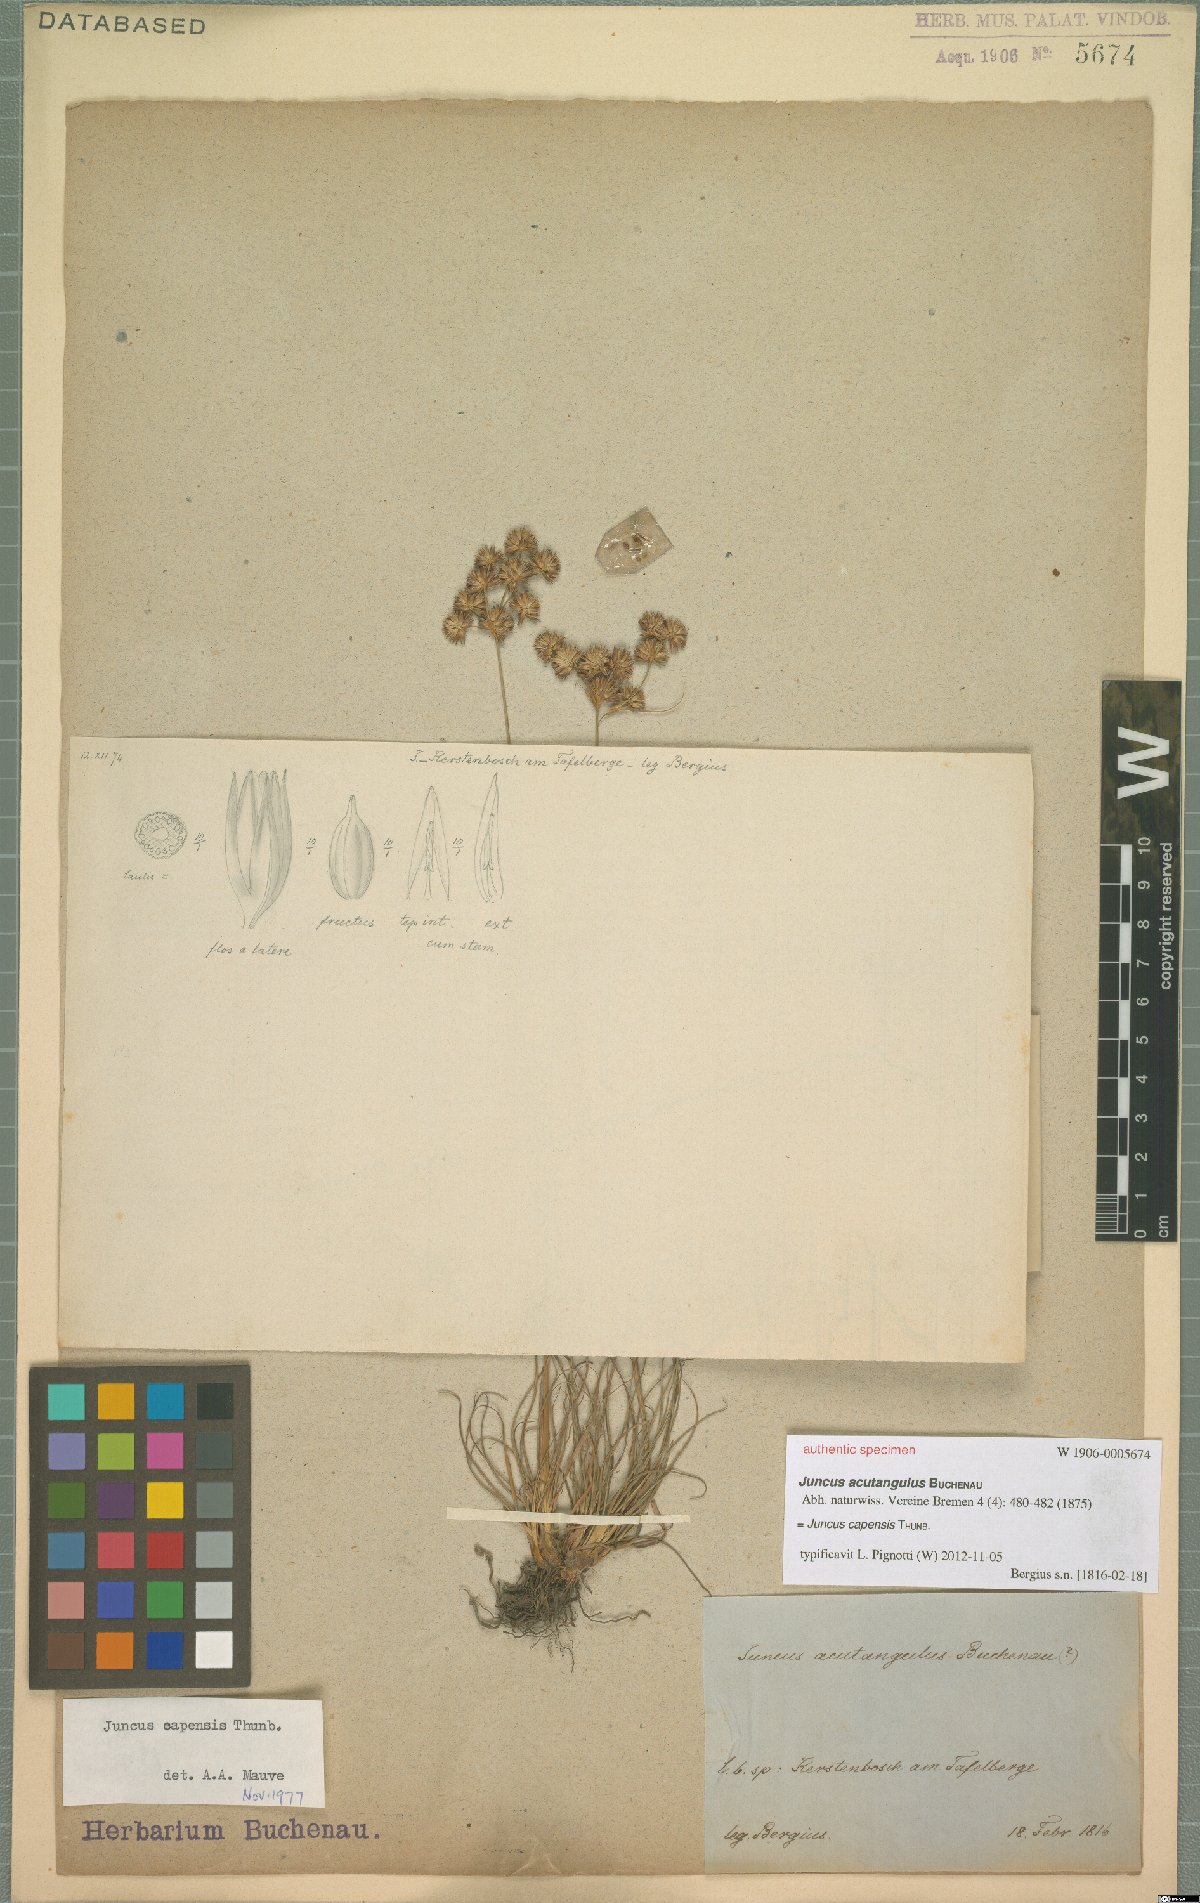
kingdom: Plantae
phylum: Tracheophyta
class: Liliopsida
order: Poales
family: Juncaceae
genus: Juncus
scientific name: Juncus capensis
